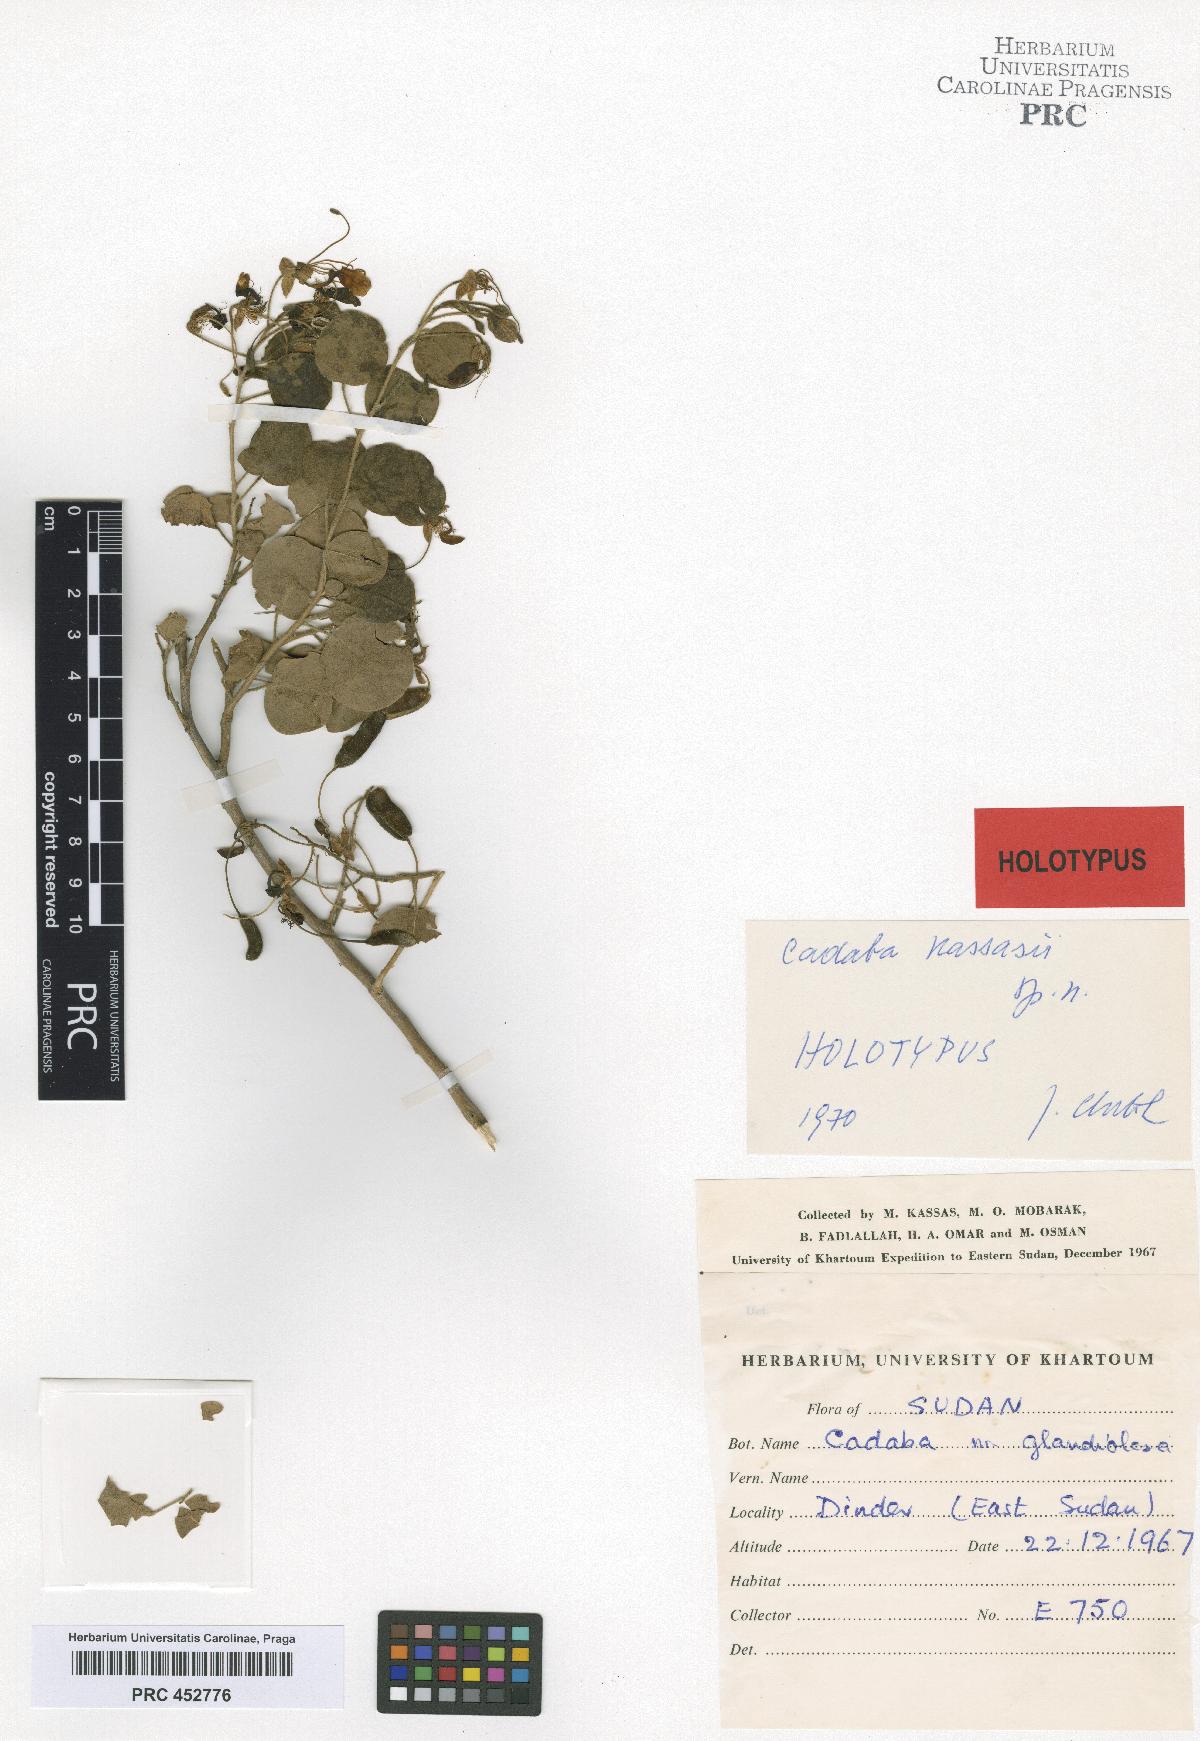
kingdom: Plantae
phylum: Tracheophyta
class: Magnoliopsida
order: Brassicales
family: Capparaceae
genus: Cadaba
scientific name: Cadaba kassasii
